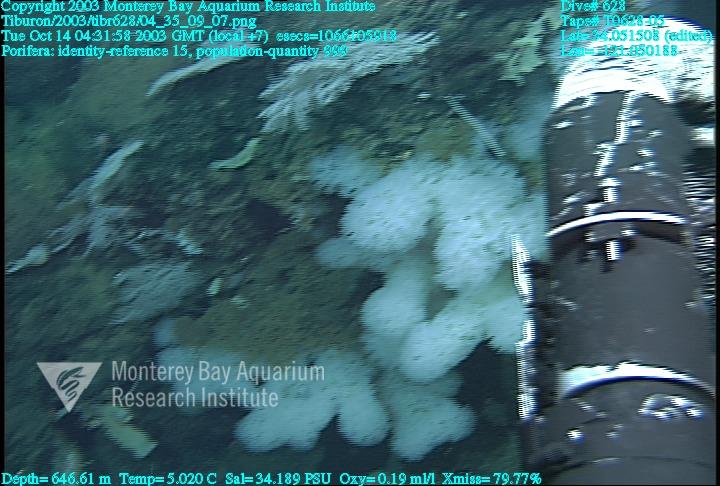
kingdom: Animalia
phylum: Porifera
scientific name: Porifera
